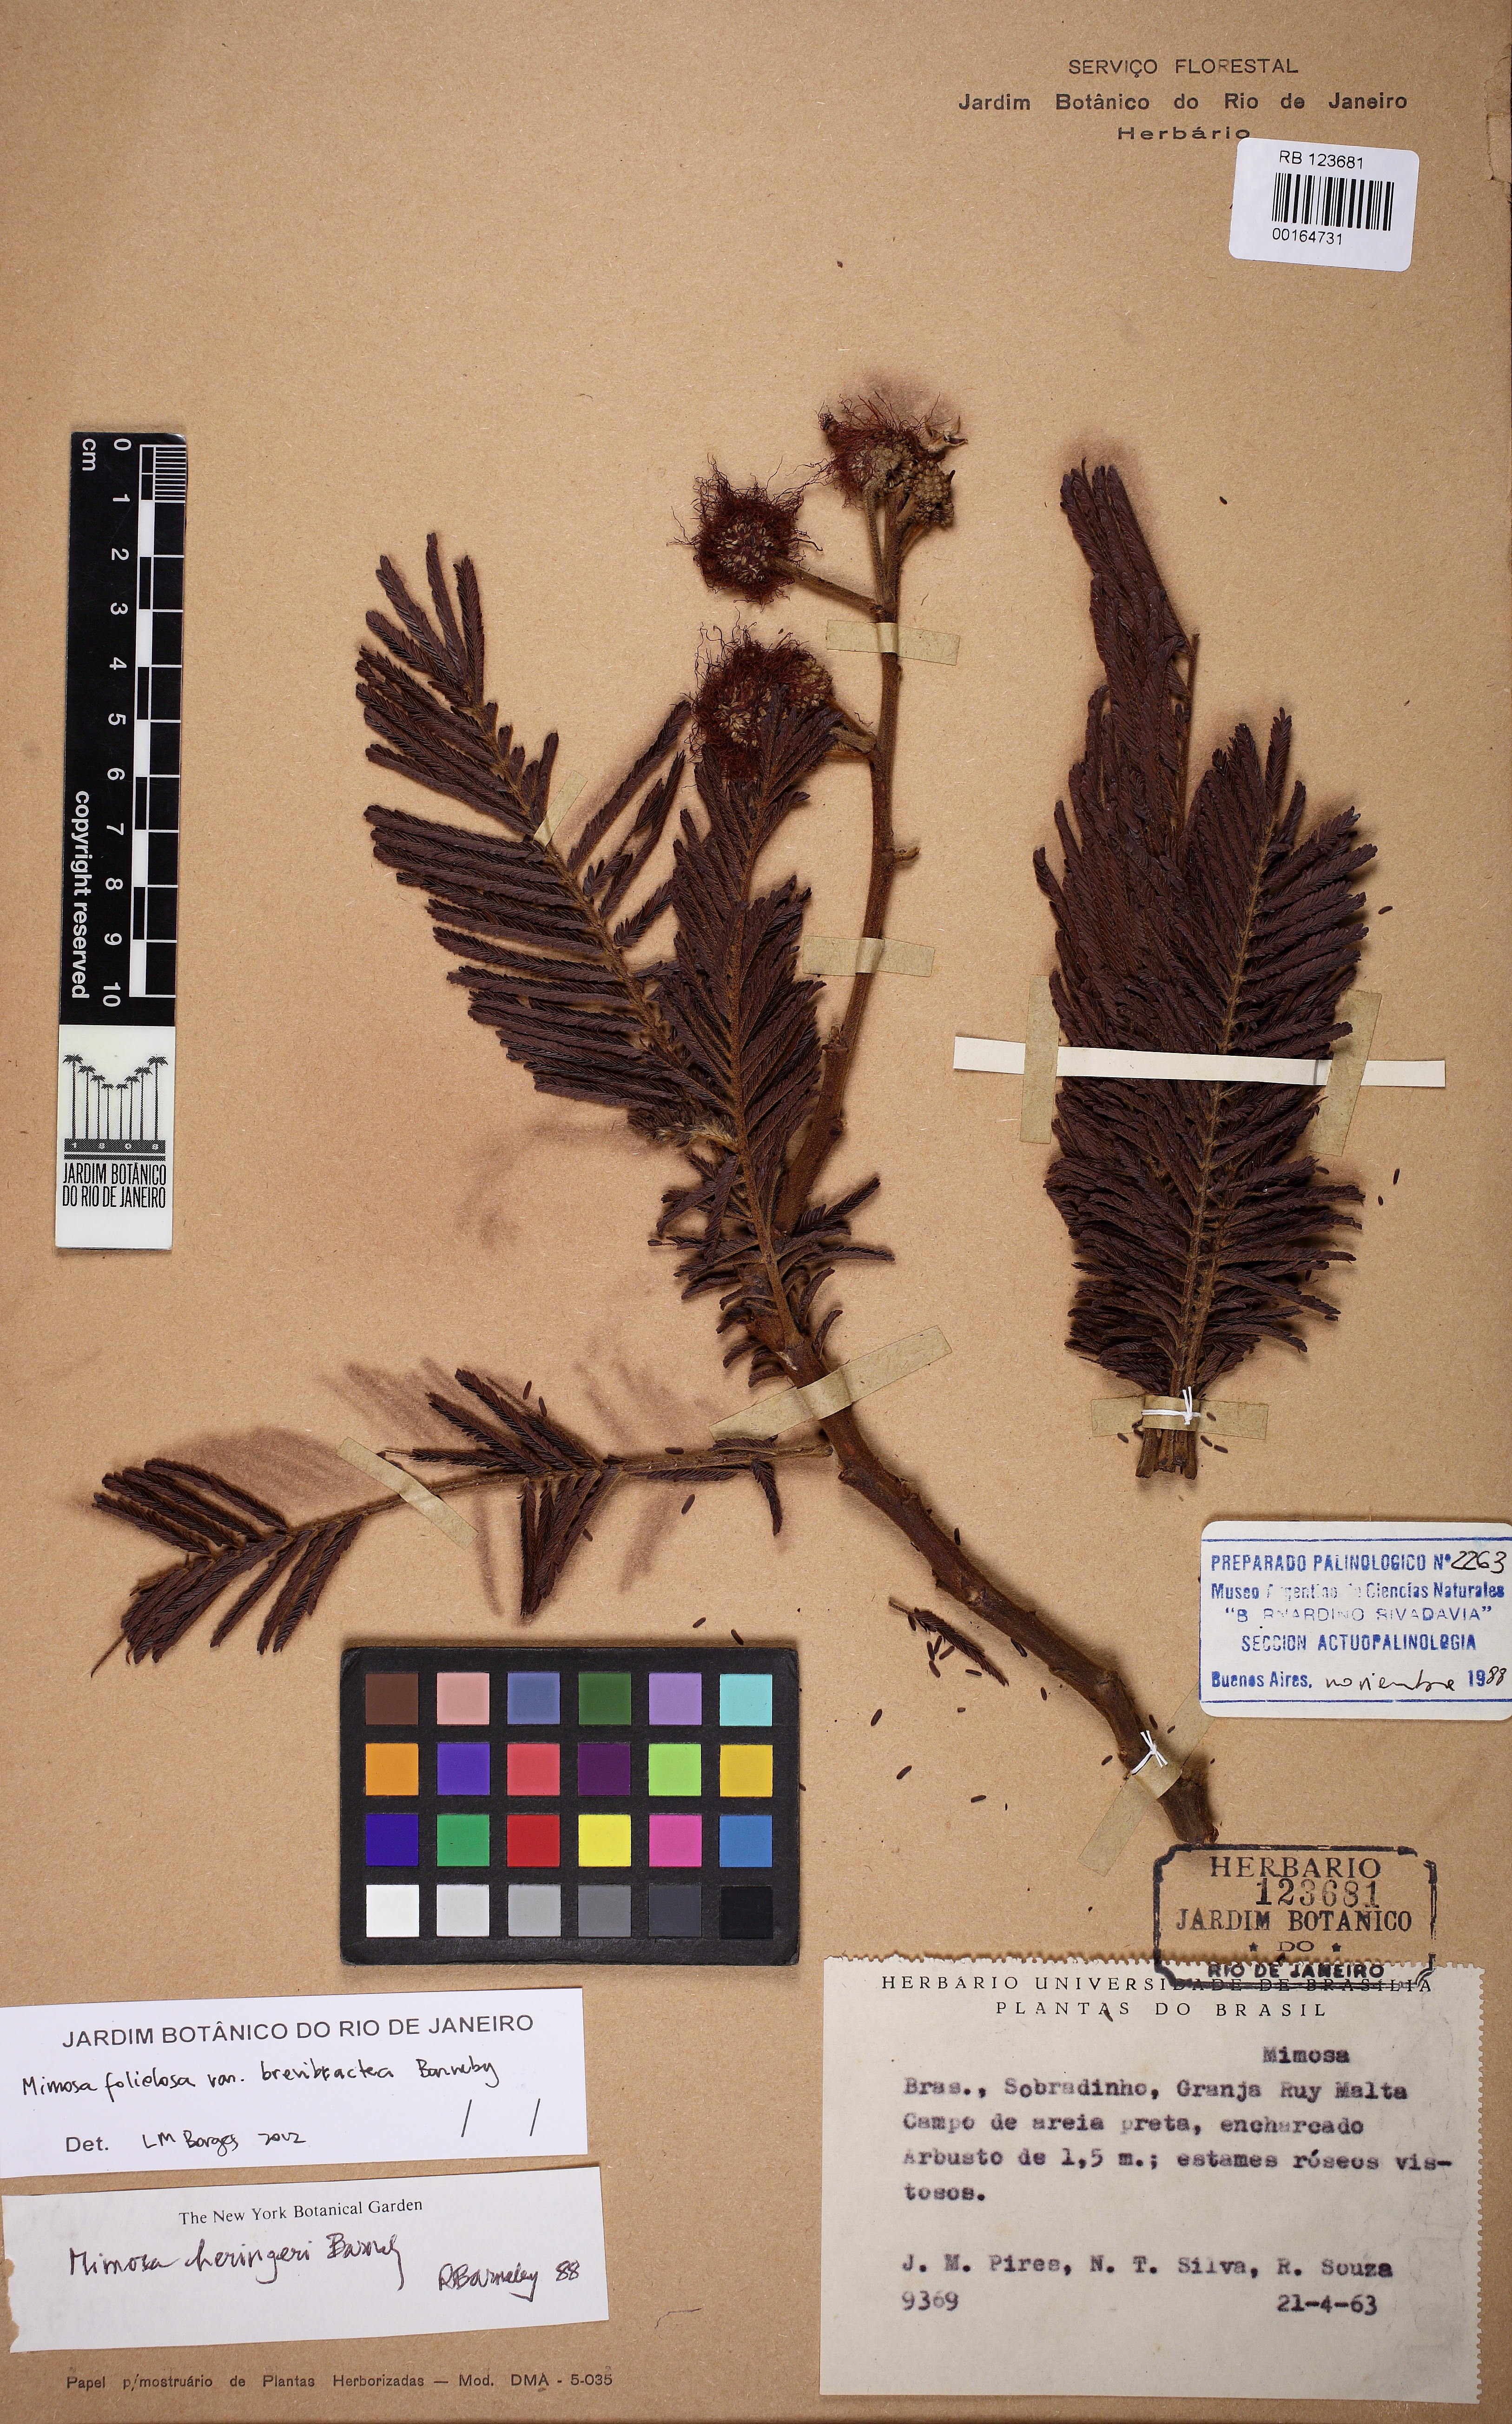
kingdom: Plantae
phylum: Tracheophyta
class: Magnoliopsida
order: Fabales
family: Fabaceae
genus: Mimosa
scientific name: Mimosa foliolosa
